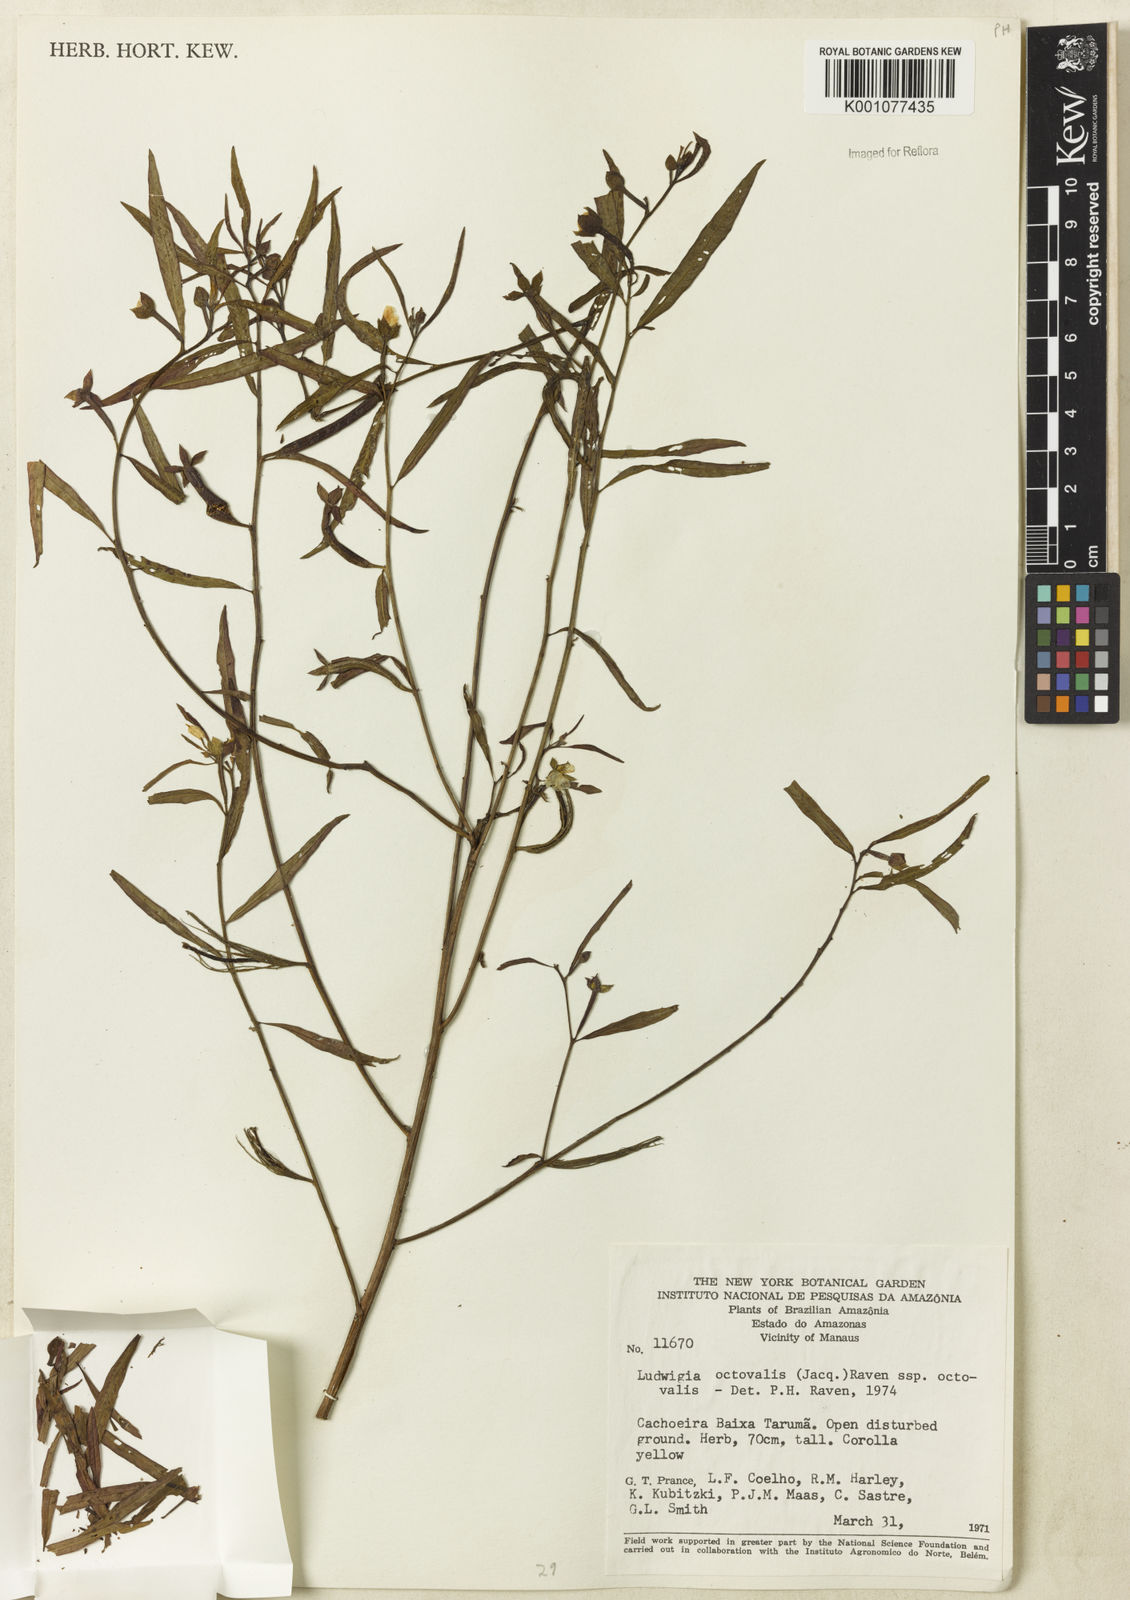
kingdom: Plantae
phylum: Tracheophyta
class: Magnoliopsida
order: Myrtales
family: Onagraceae
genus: Ludwigia
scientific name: Ludwigia octovalvis
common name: Water-primrose
